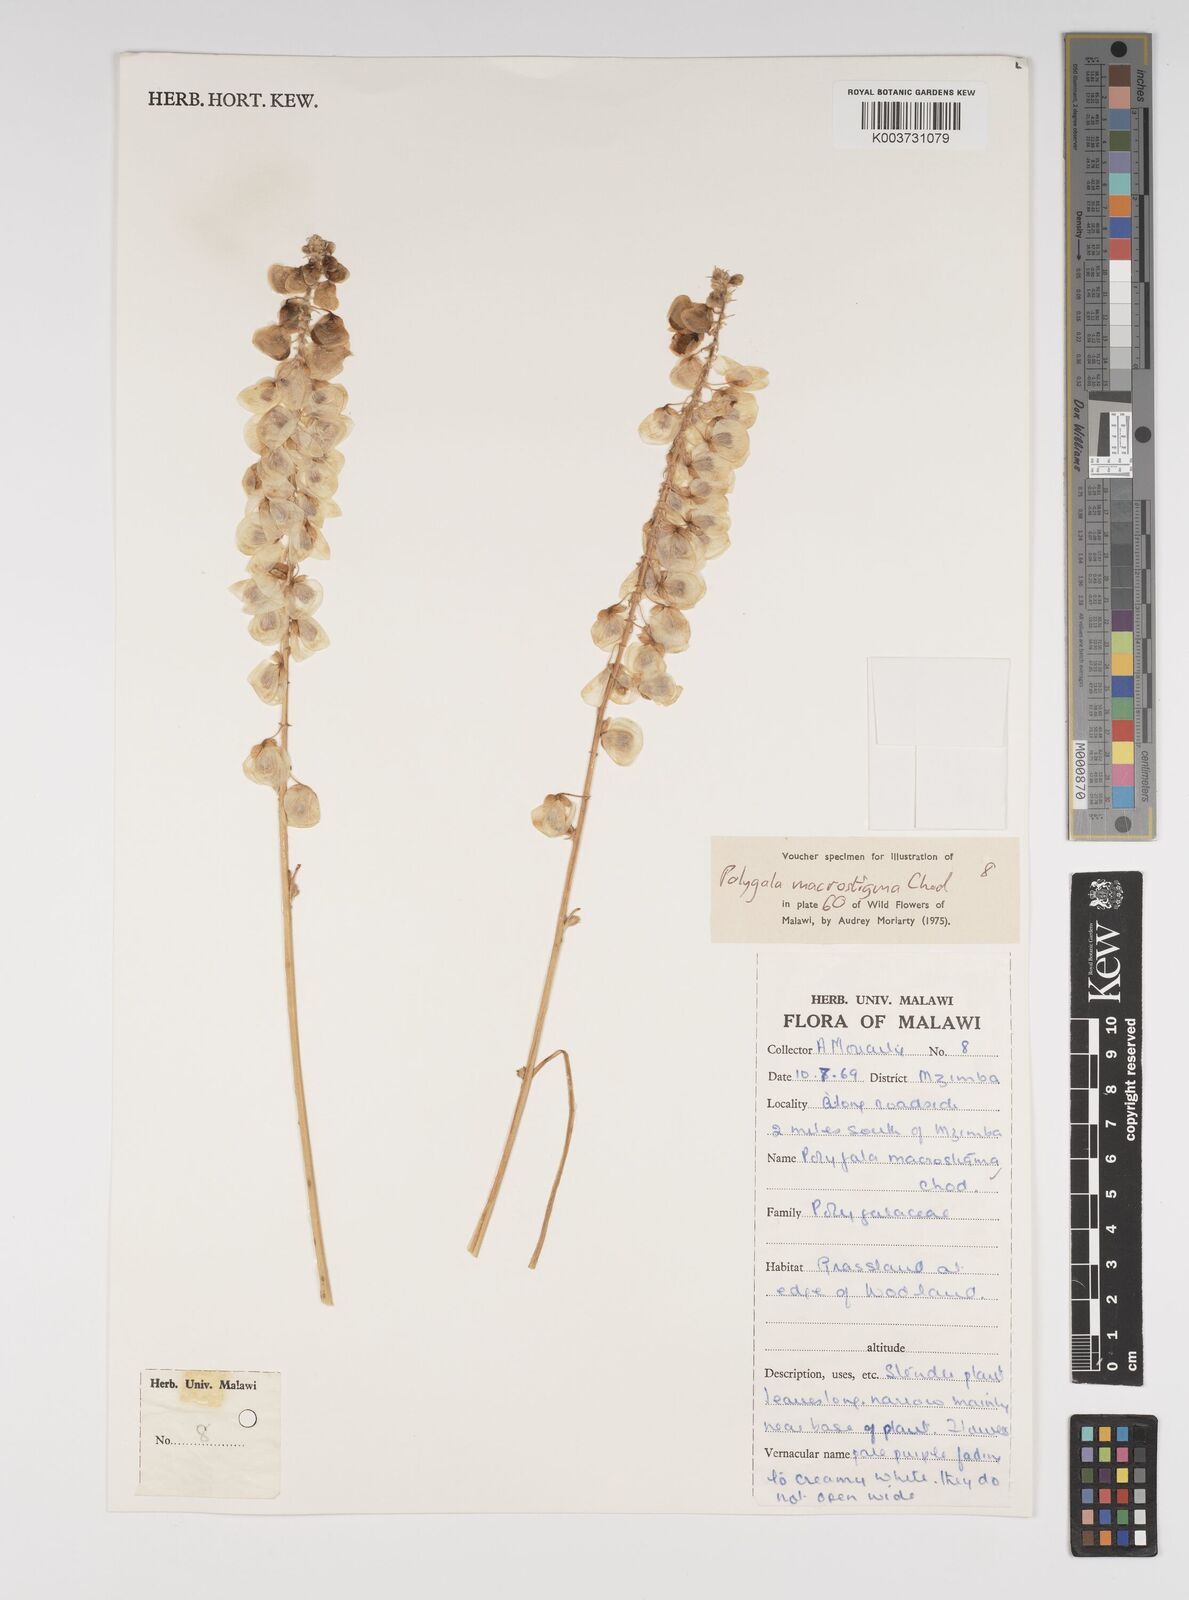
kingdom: Plantae
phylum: Tracheophyta
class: Magnoliopsida
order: Fabales
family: Polygalaceae
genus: Polygala
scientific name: Polygala macrostigma
